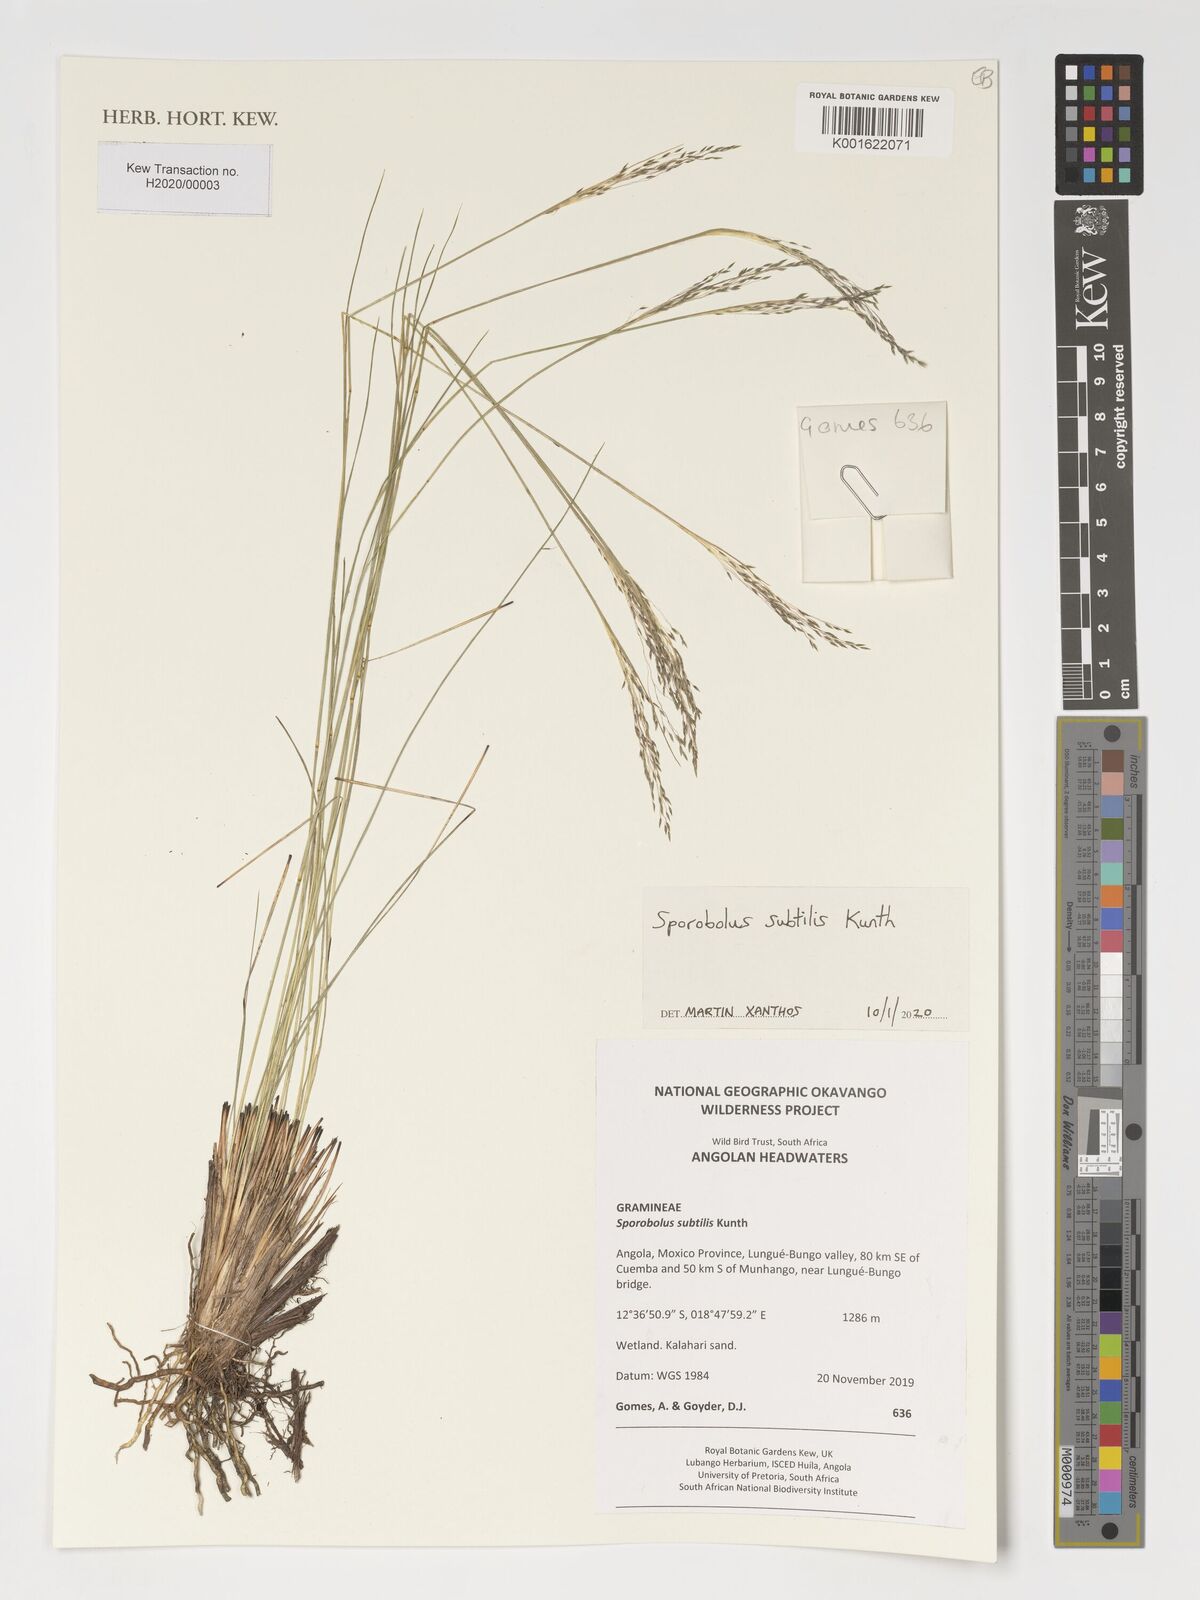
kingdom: Plantae
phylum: Tracheophyta
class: Liliopsida
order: Poales
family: Poaceae
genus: Sporobolus
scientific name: Sporobolus subtilis
